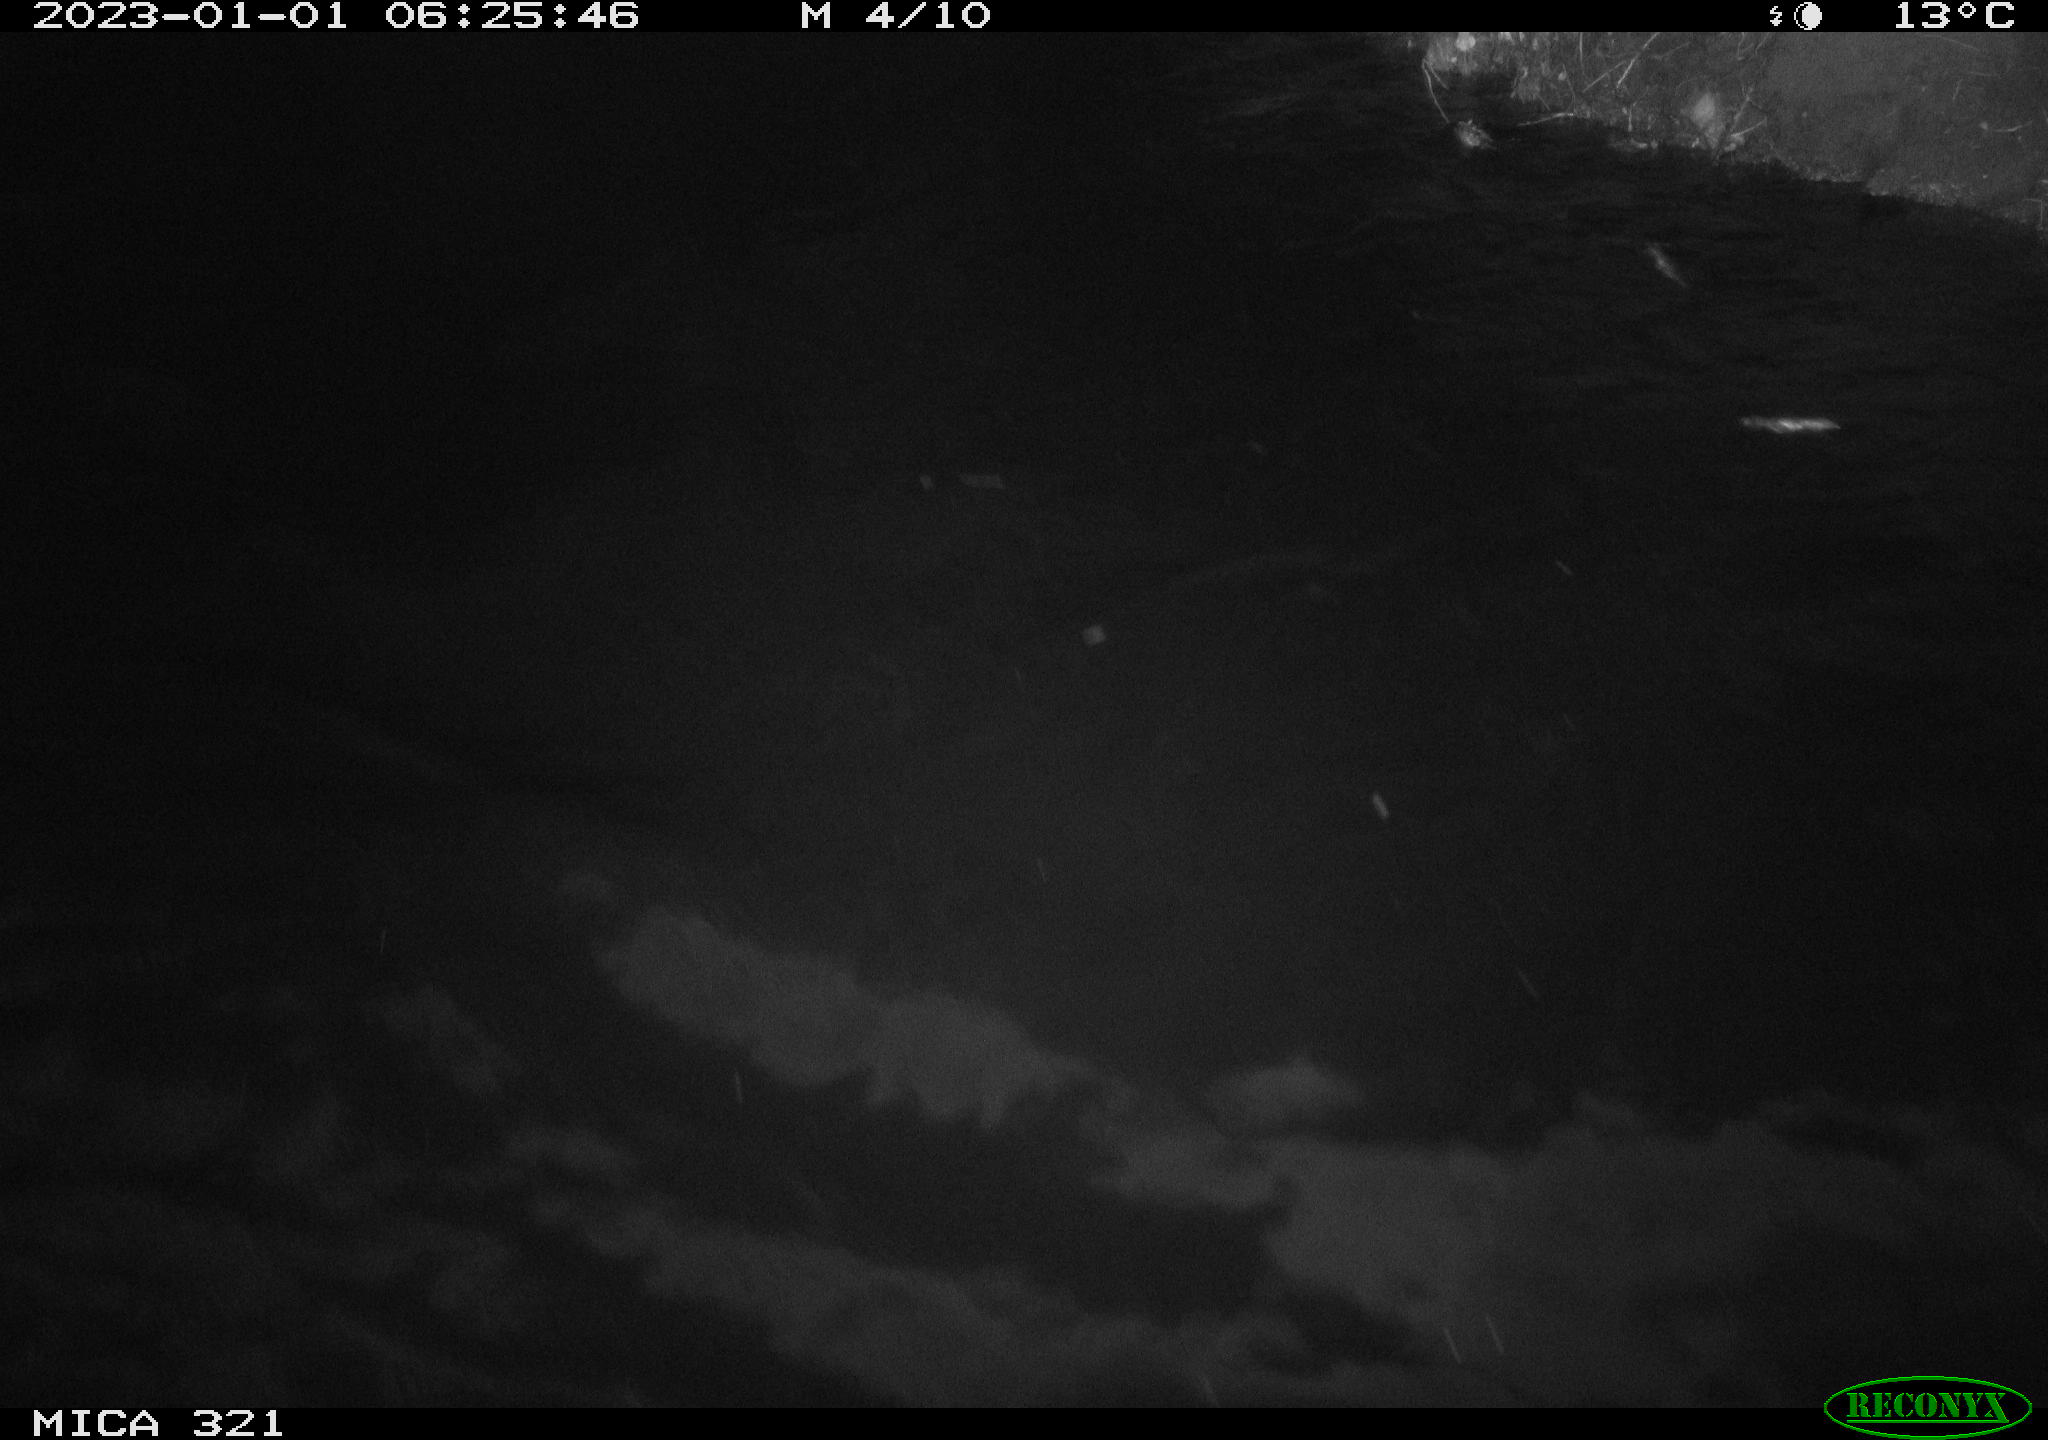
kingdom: Animalia
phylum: Chordata
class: Aves
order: Anseriformes
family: Anatidae
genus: Anas
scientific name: Anas
